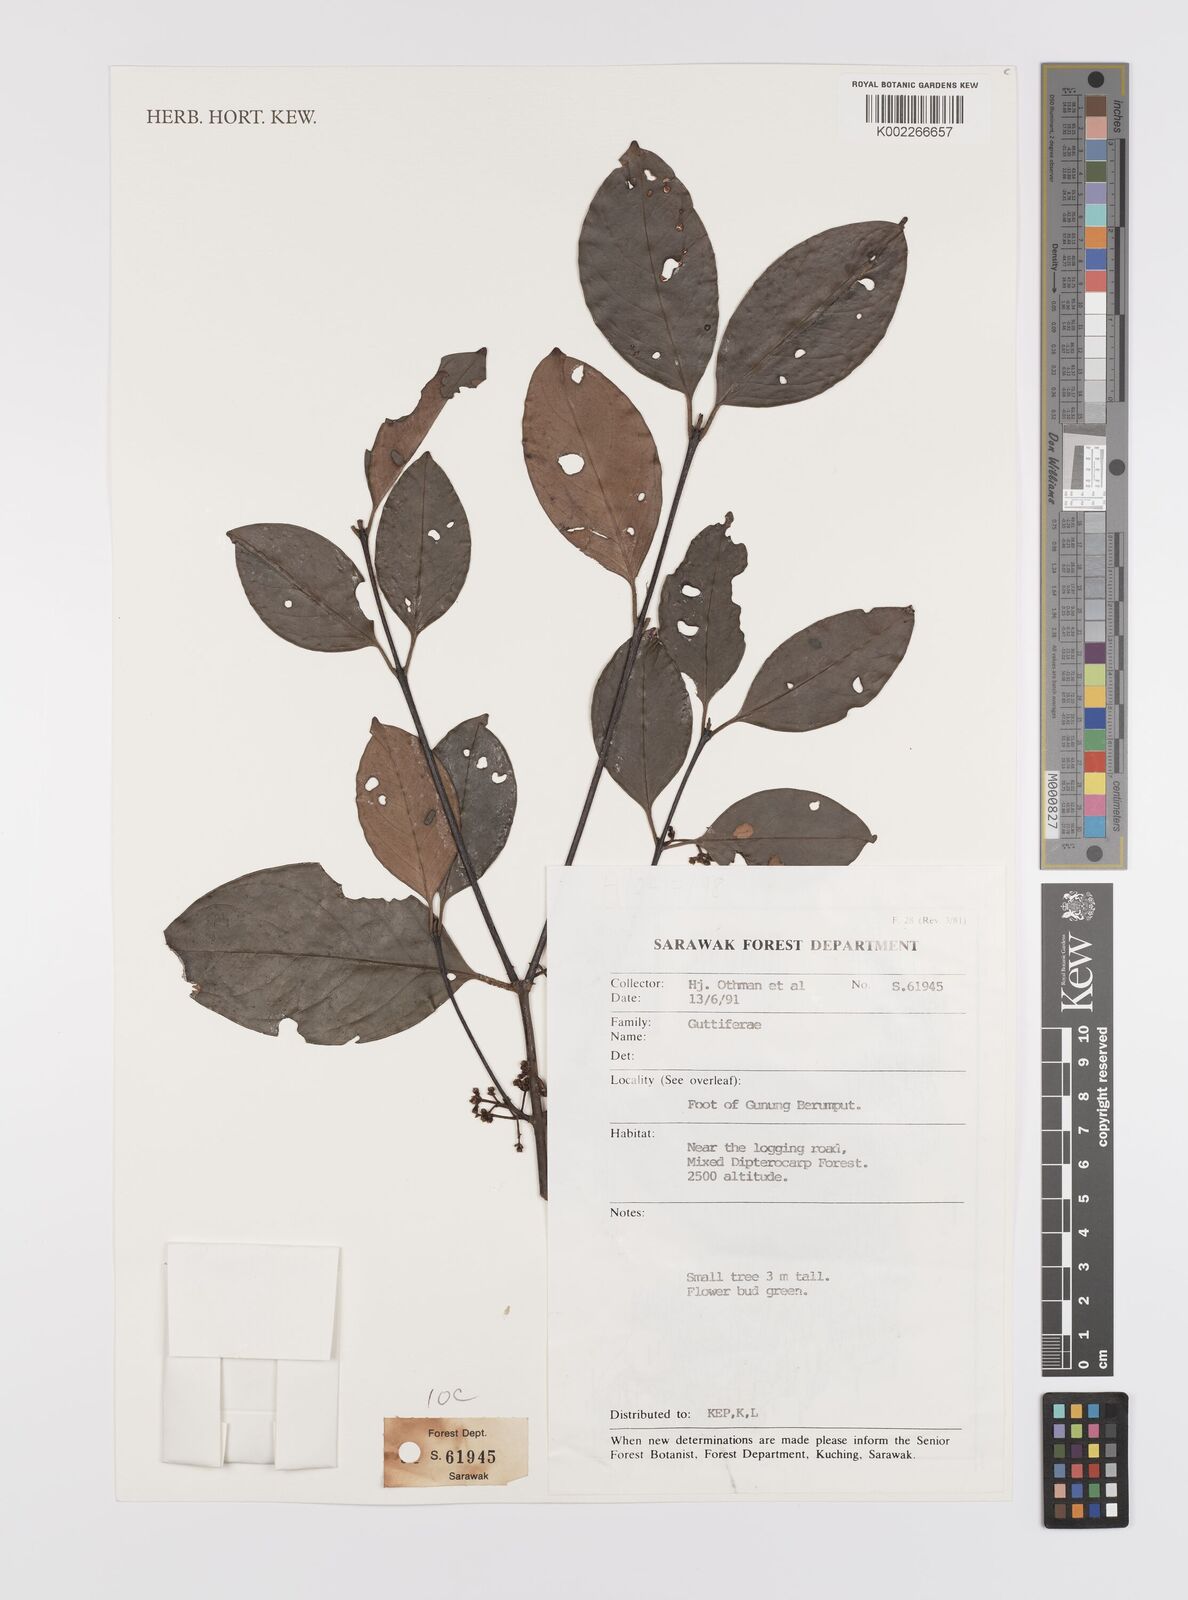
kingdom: Plantae
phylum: Tracheophyta
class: Magnoliopsida
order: Celastrales
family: Celastraceae
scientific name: Celastraceae
